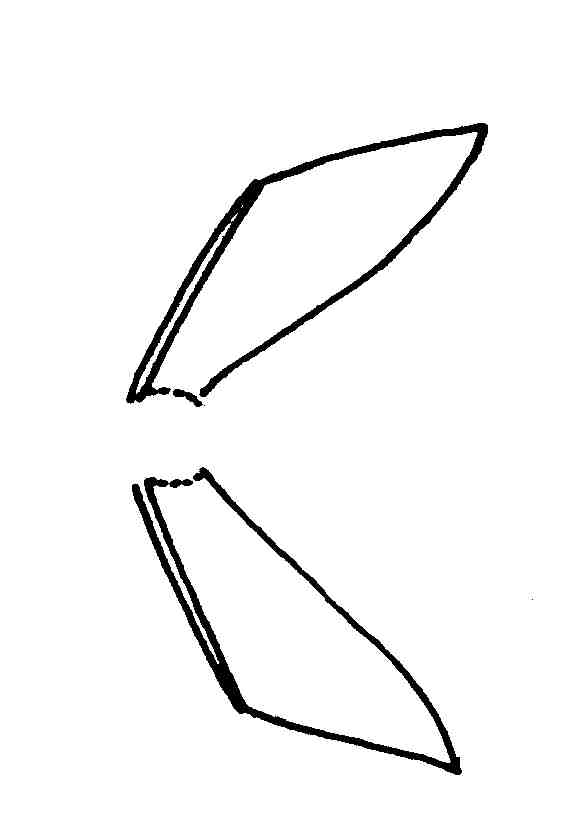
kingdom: Animalia
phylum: Chordata
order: Perciformes
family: Gobiidae
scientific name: Gobiidae
